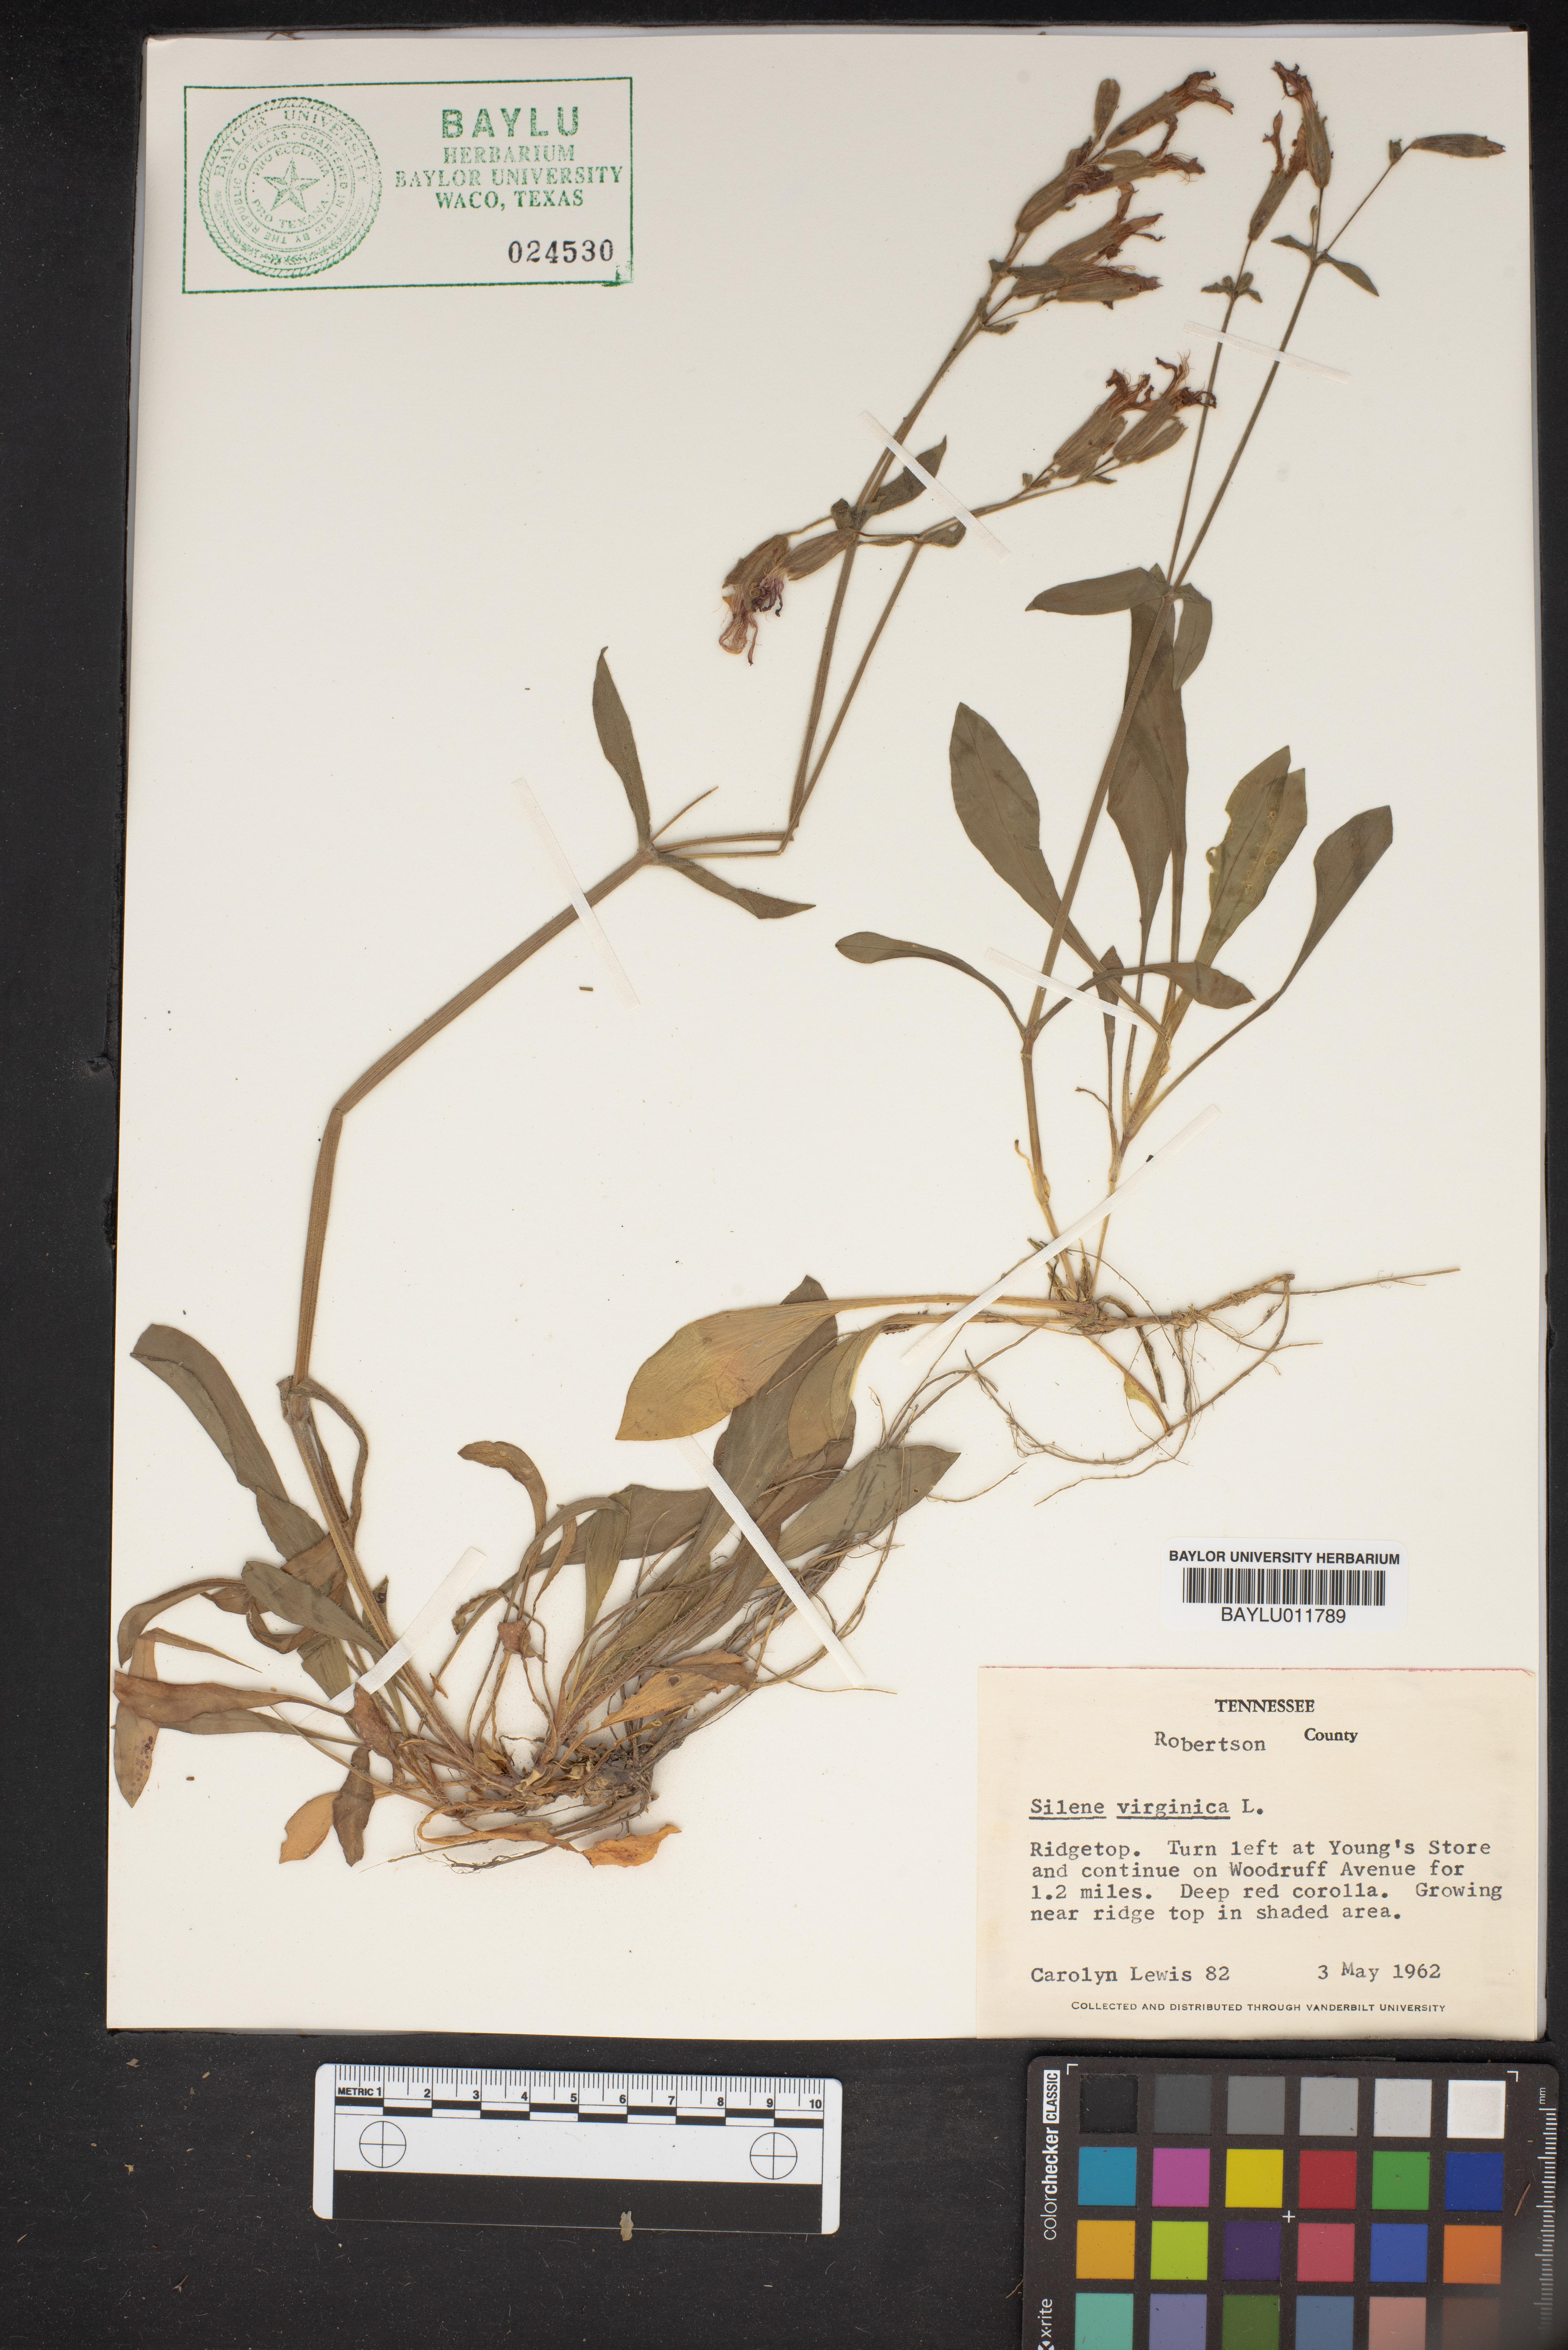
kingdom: Plantae
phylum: Tracheophyta
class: Magnoliopsida
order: Caryophyllales
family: Caryophyllaceae
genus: Silene
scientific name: Silene virginica
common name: Fire-pink
